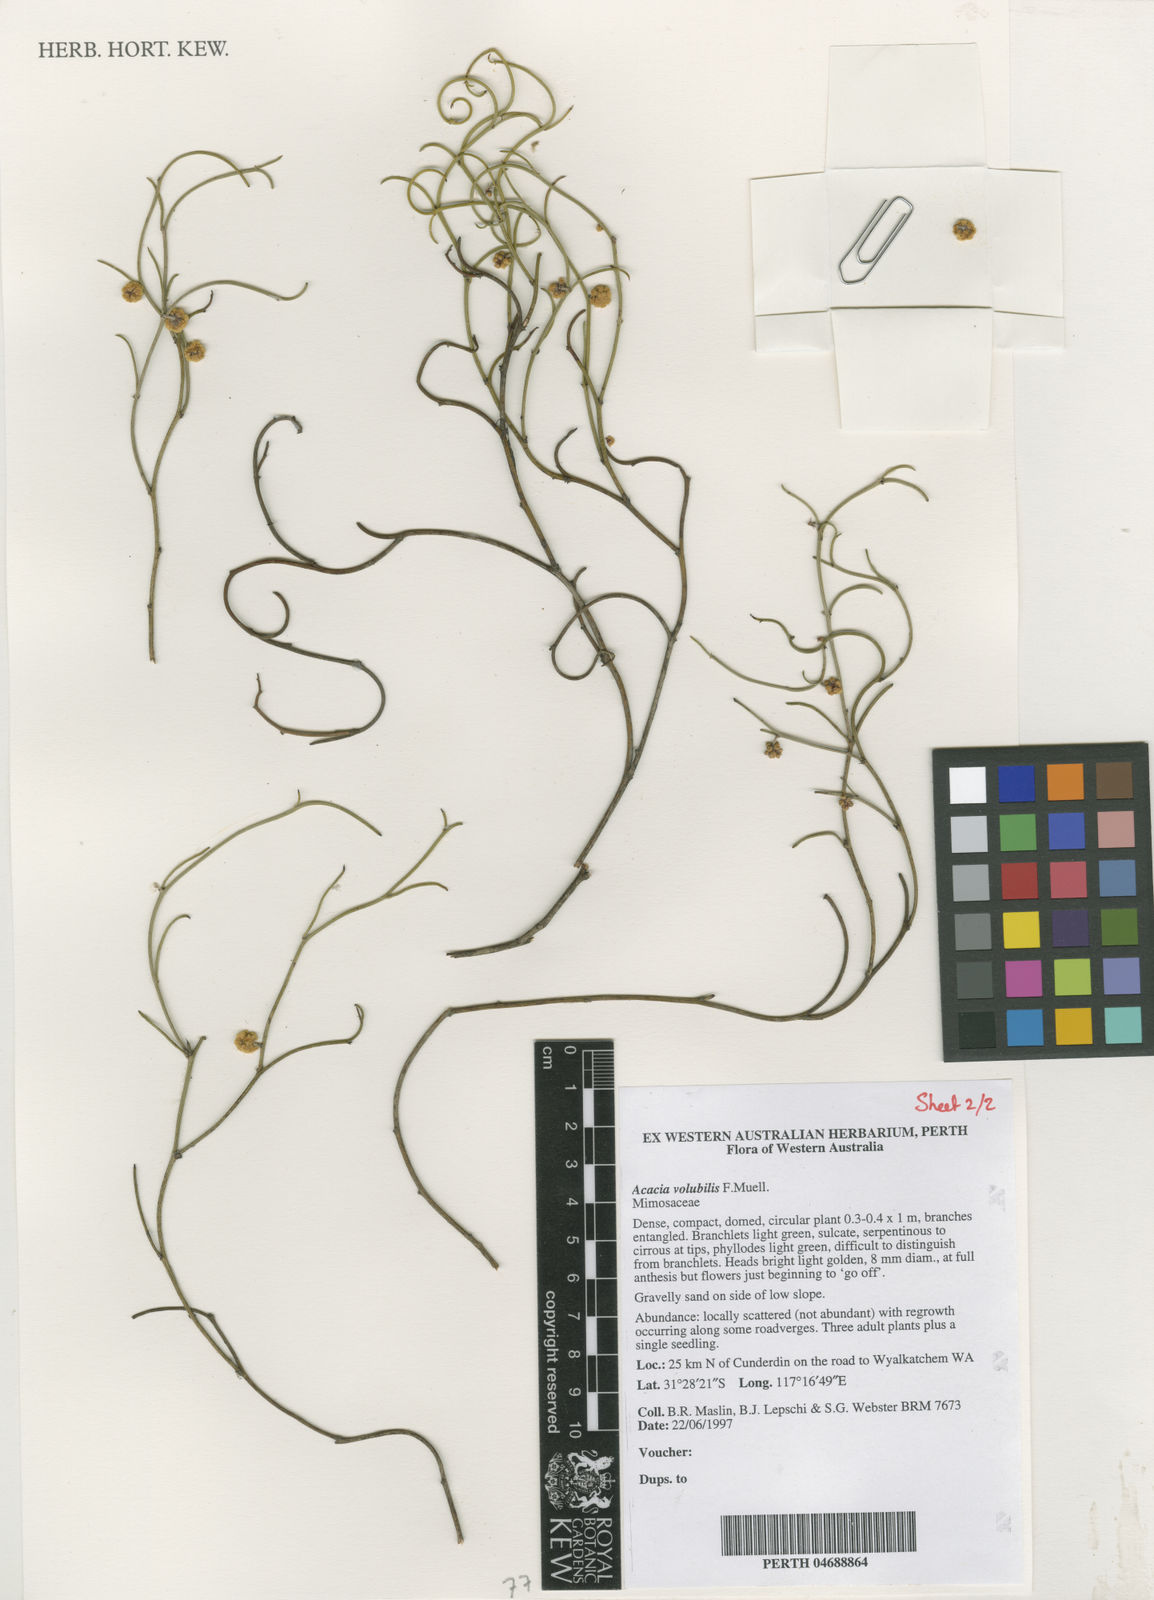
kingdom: Plantae
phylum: Tracheophyta
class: Magnoliopsida
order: Fabales
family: Fabaceae
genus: Acacia
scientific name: Acacia volubilis
